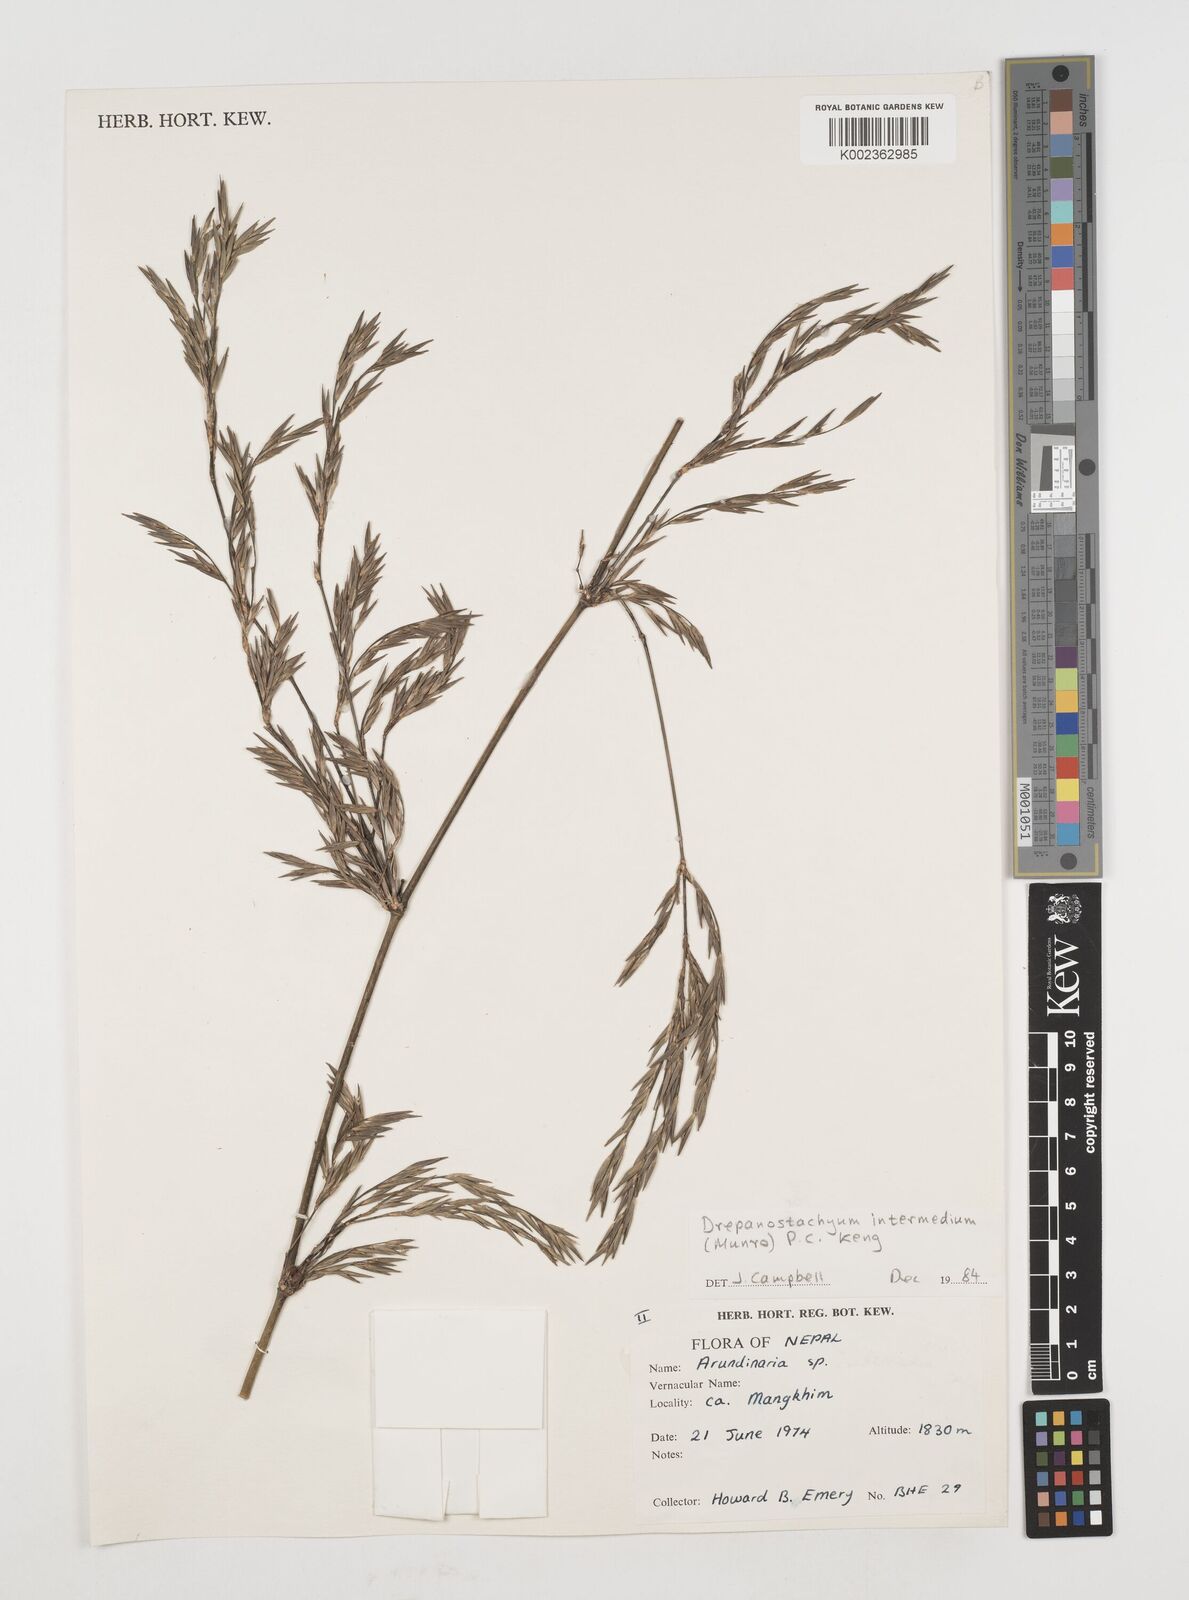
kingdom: Plantae
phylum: Tracheophyta
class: Liliopsida
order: Poales
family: Poaceae
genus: Drepanostachyum
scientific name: Drepanostachyum intermedium
